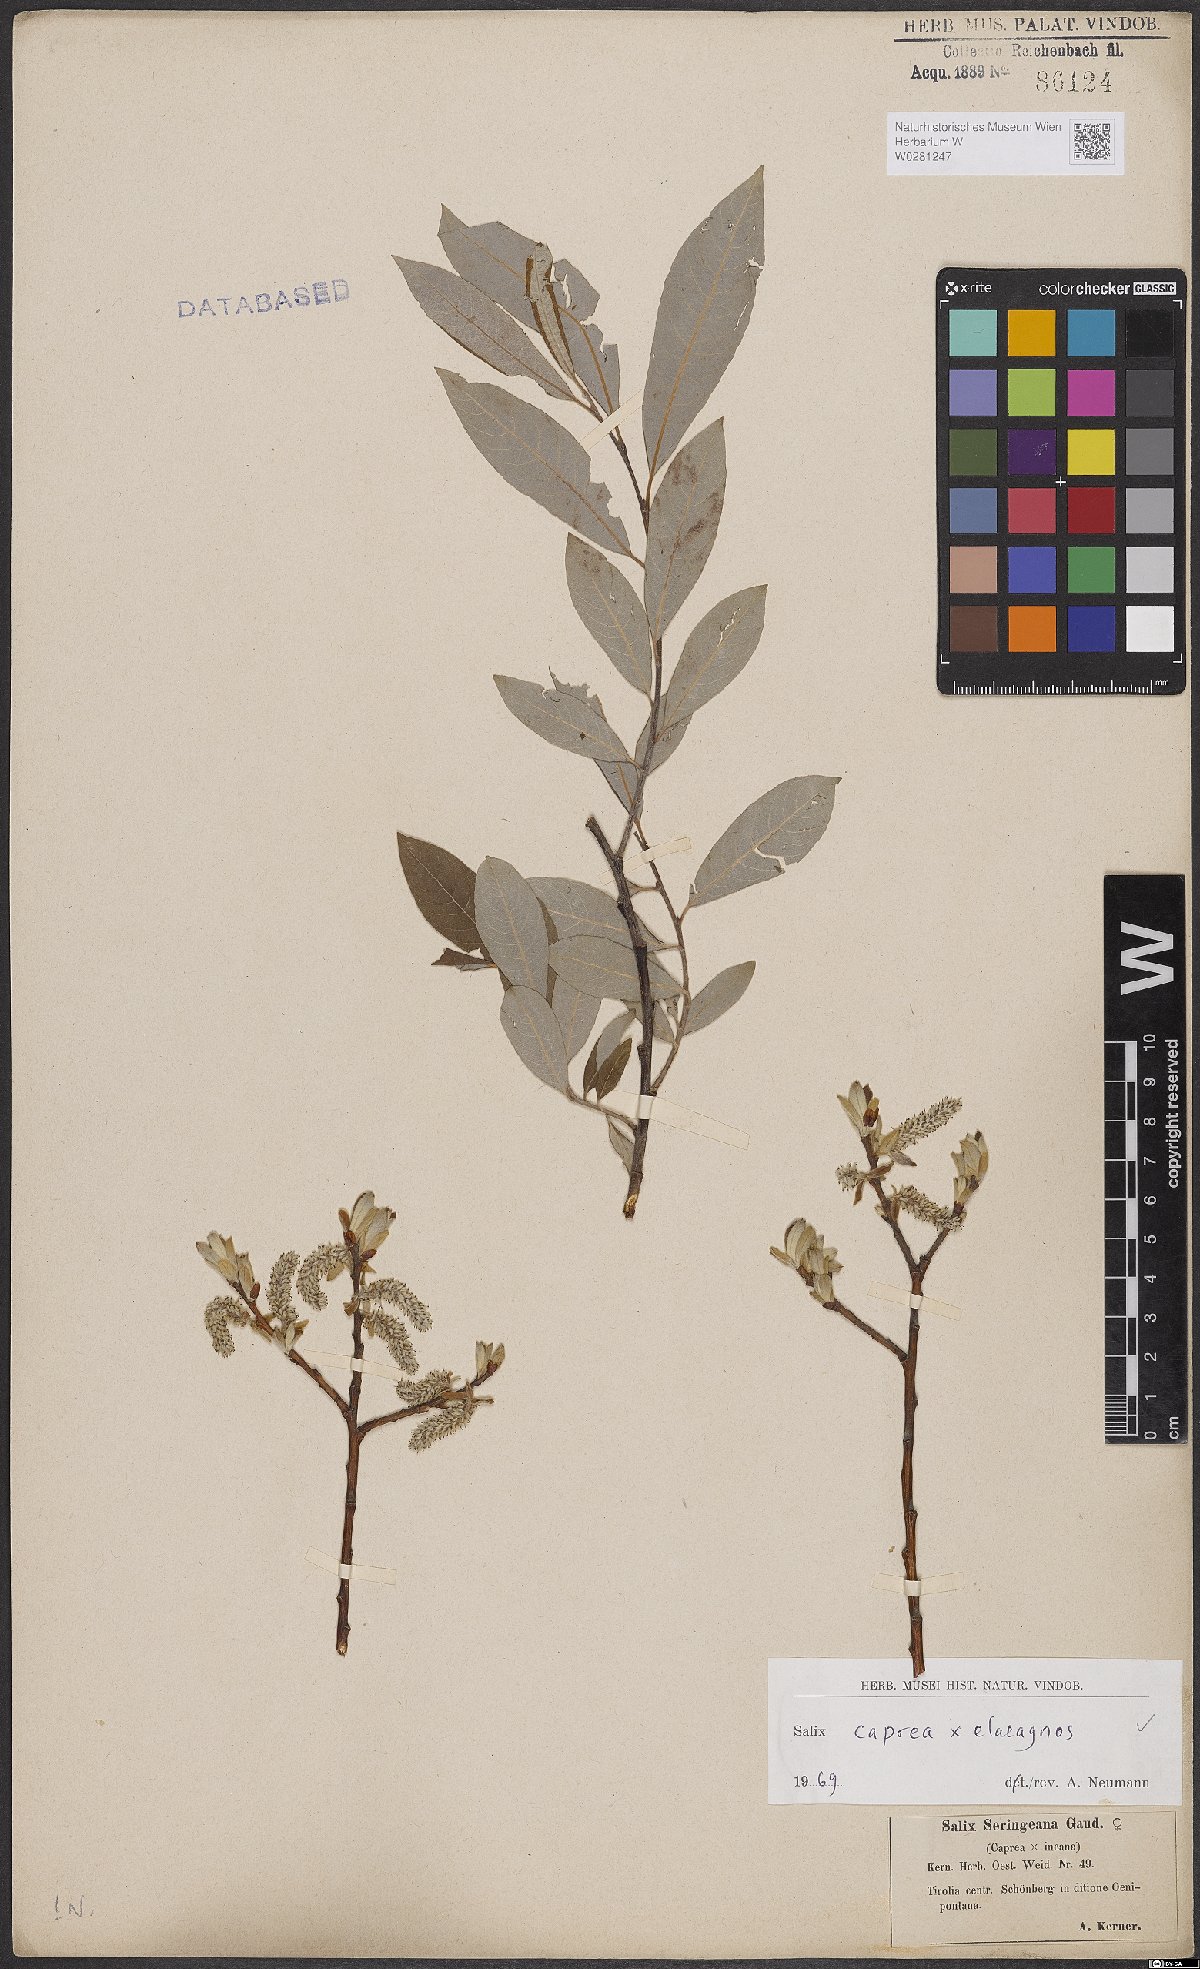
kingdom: Plantae
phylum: Tracheophyta
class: Magnoliopsida
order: Malpighiales
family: Salicaceae
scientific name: Salicaceae
